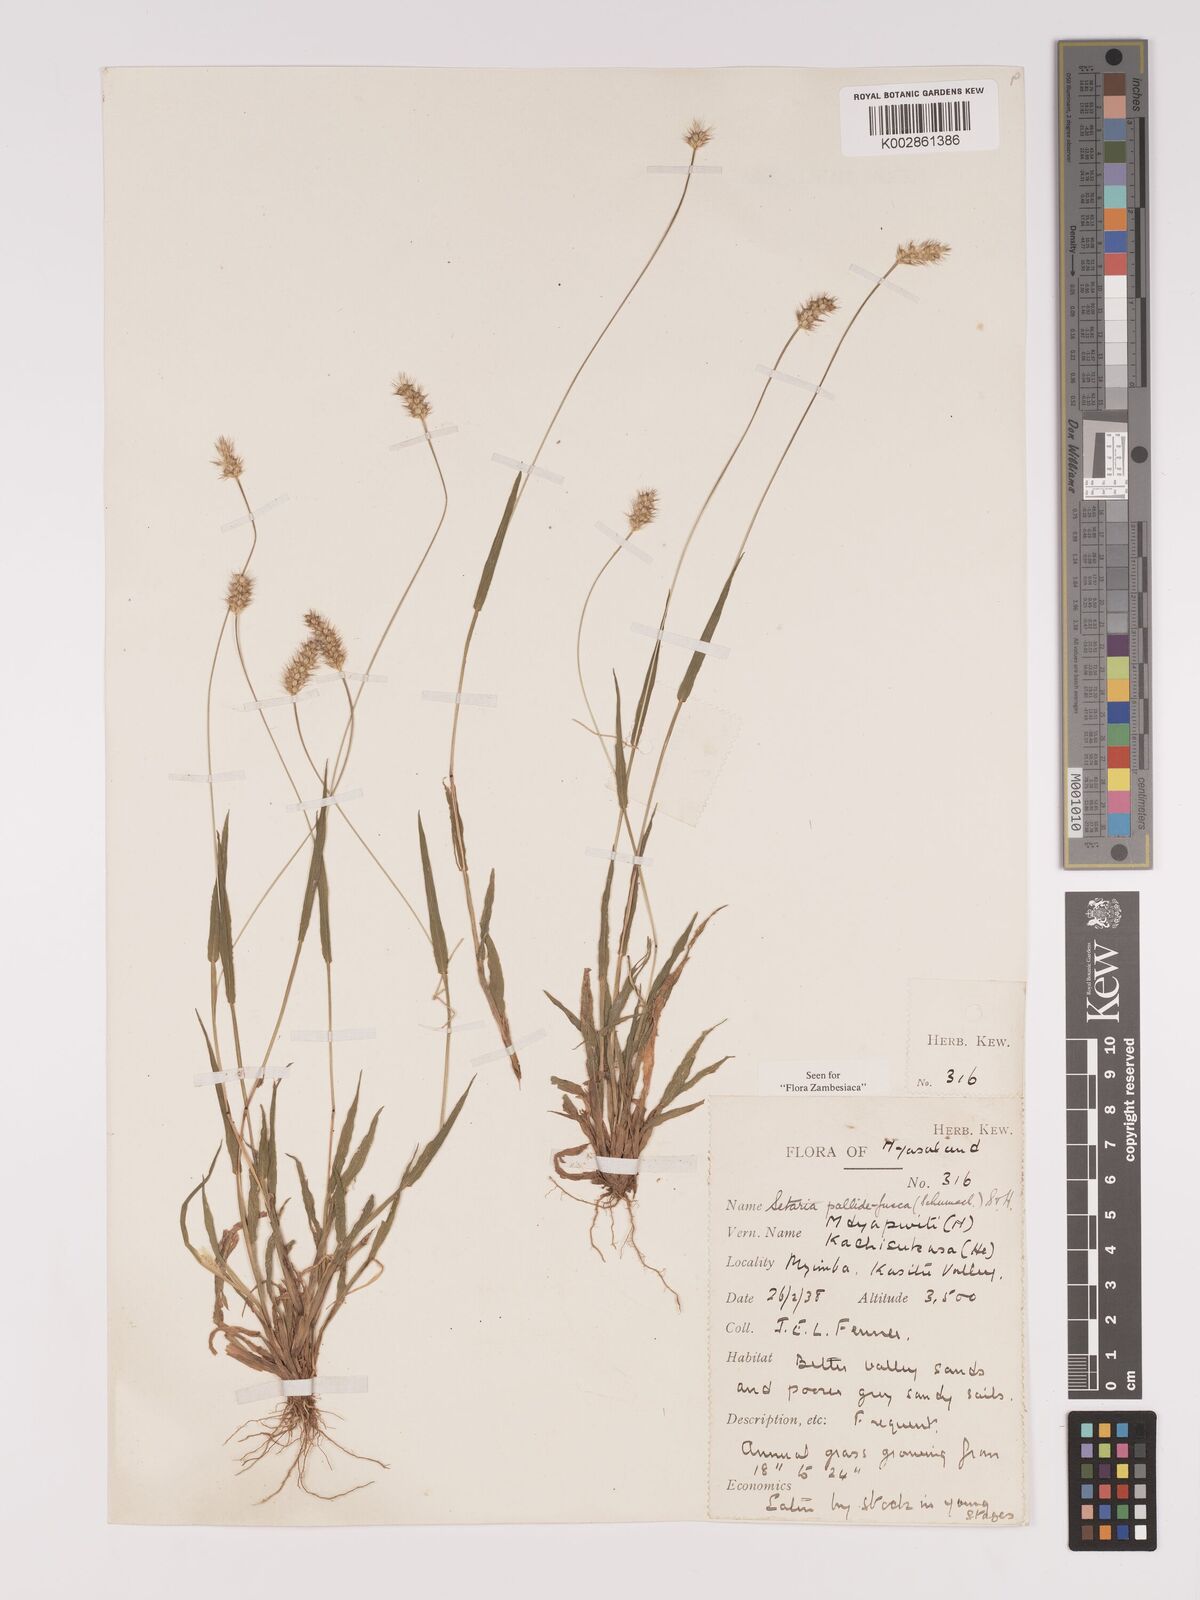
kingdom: Plantae
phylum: Tracheophyta
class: Liliopsida
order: Poales
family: Poaceae
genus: Setaria
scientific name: Setaria pumila
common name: Yellow bristle-grass
